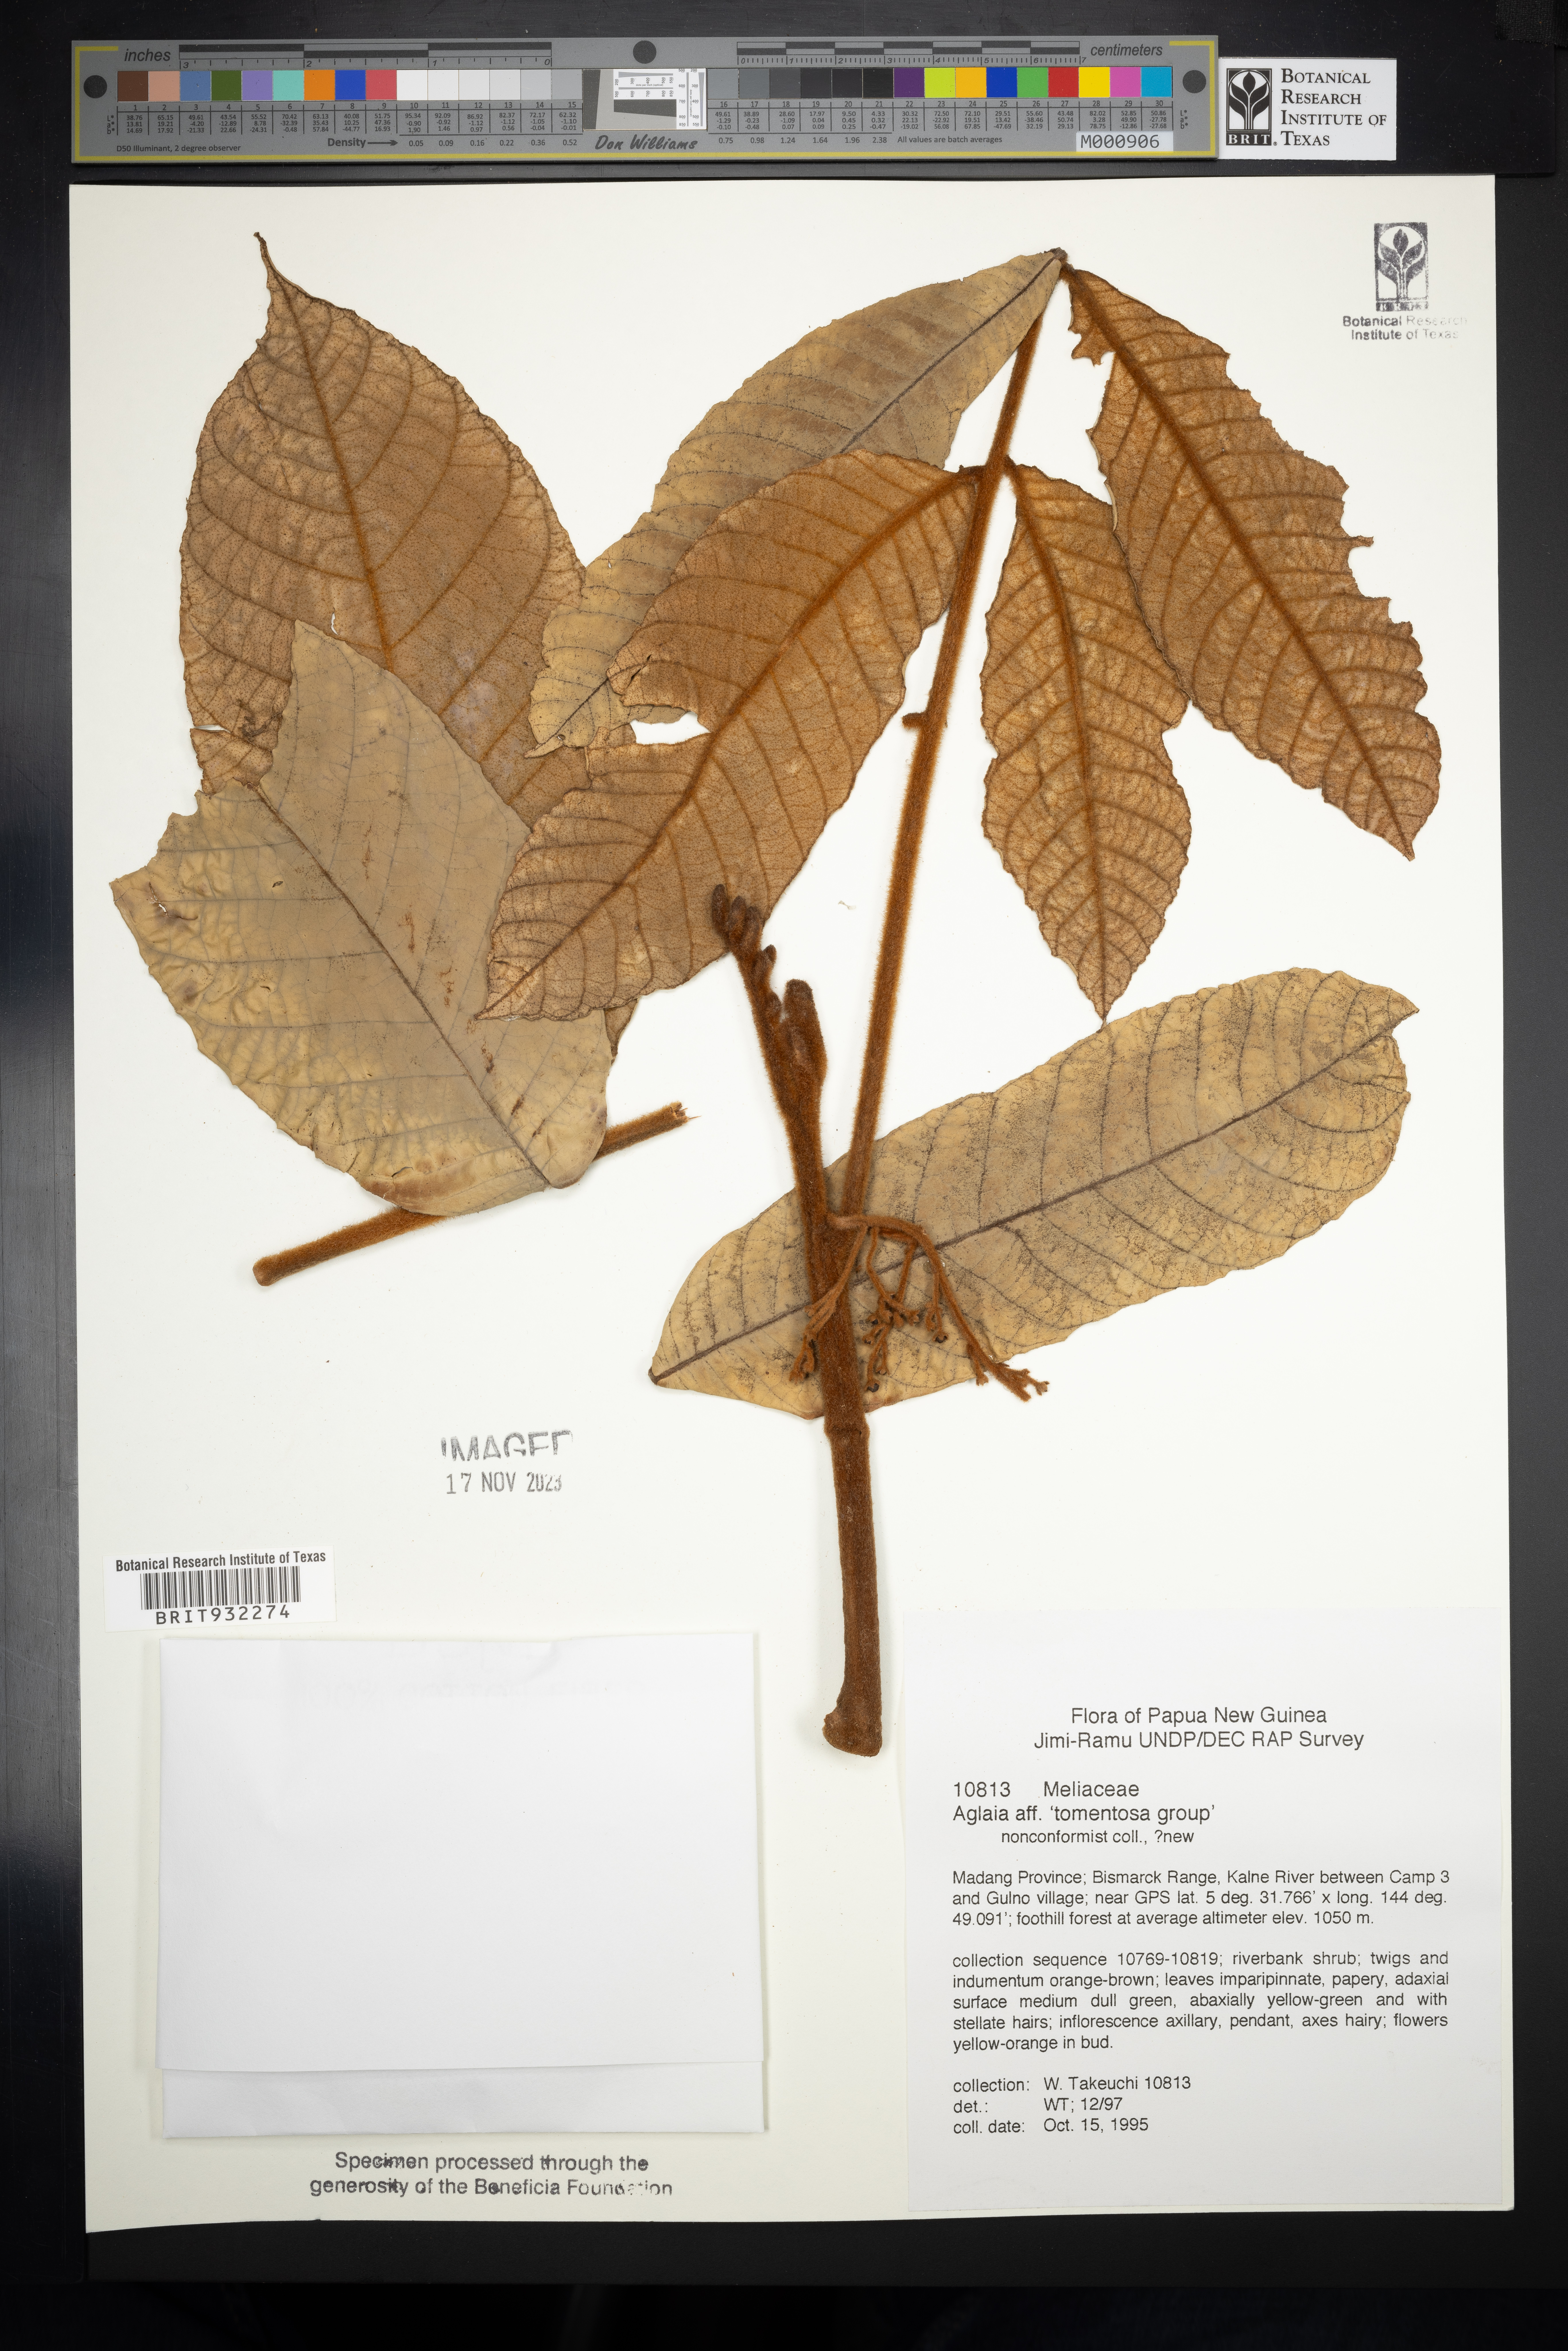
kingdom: Plantae
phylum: Tracheophyta
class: Magnoliopsida
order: Sapindales
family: Meliaceae
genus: Aglaia
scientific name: Aglaia
